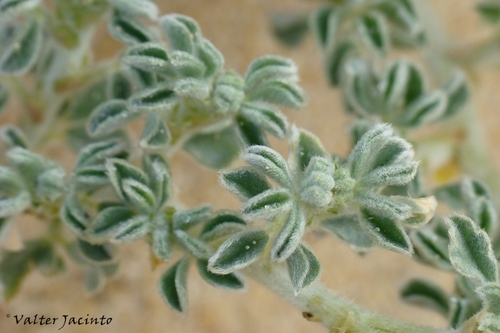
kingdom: Plantae
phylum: Tracheophyta
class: Magnoliopsida
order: Fabales
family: Fabaceae
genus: Medicago
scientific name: Medicago marina
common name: Sea medick
